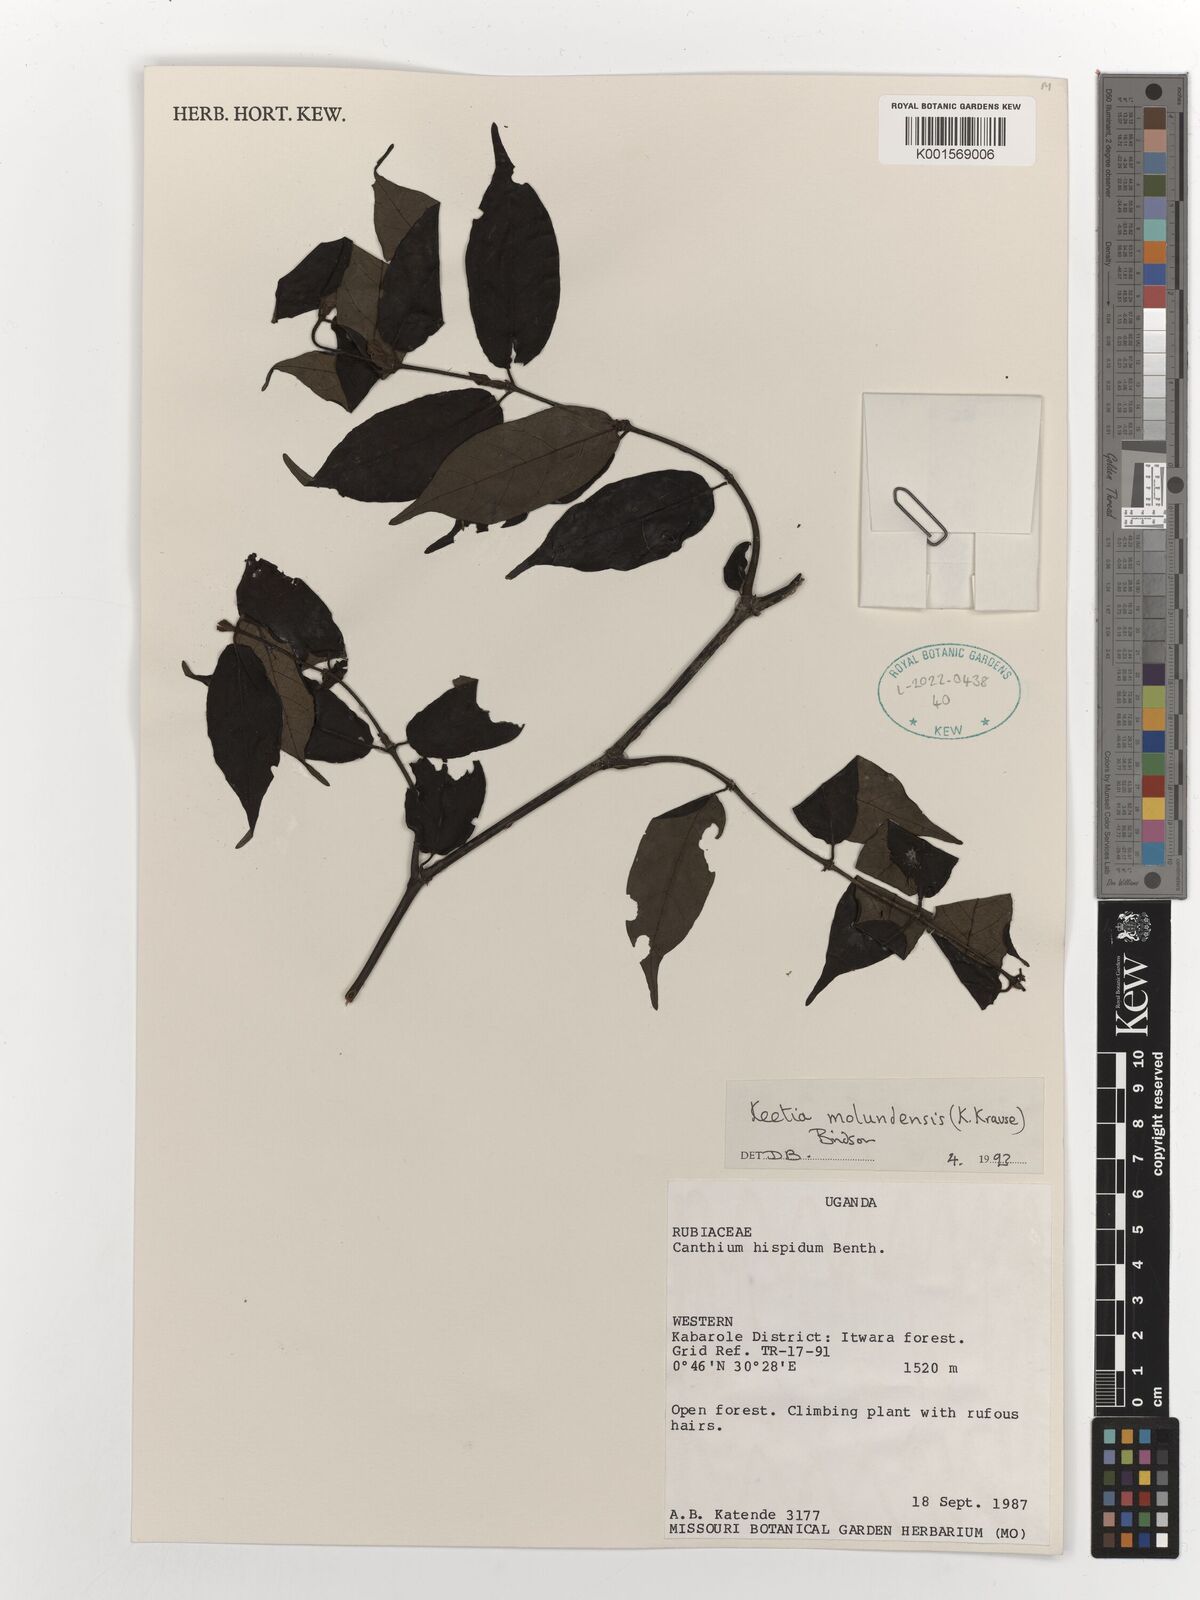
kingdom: Plantae
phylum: Tracheophyta
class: Magnoliopsida
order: Gentianales
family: Rubiaceae
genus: Keetia
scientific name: Keetia molundensis
